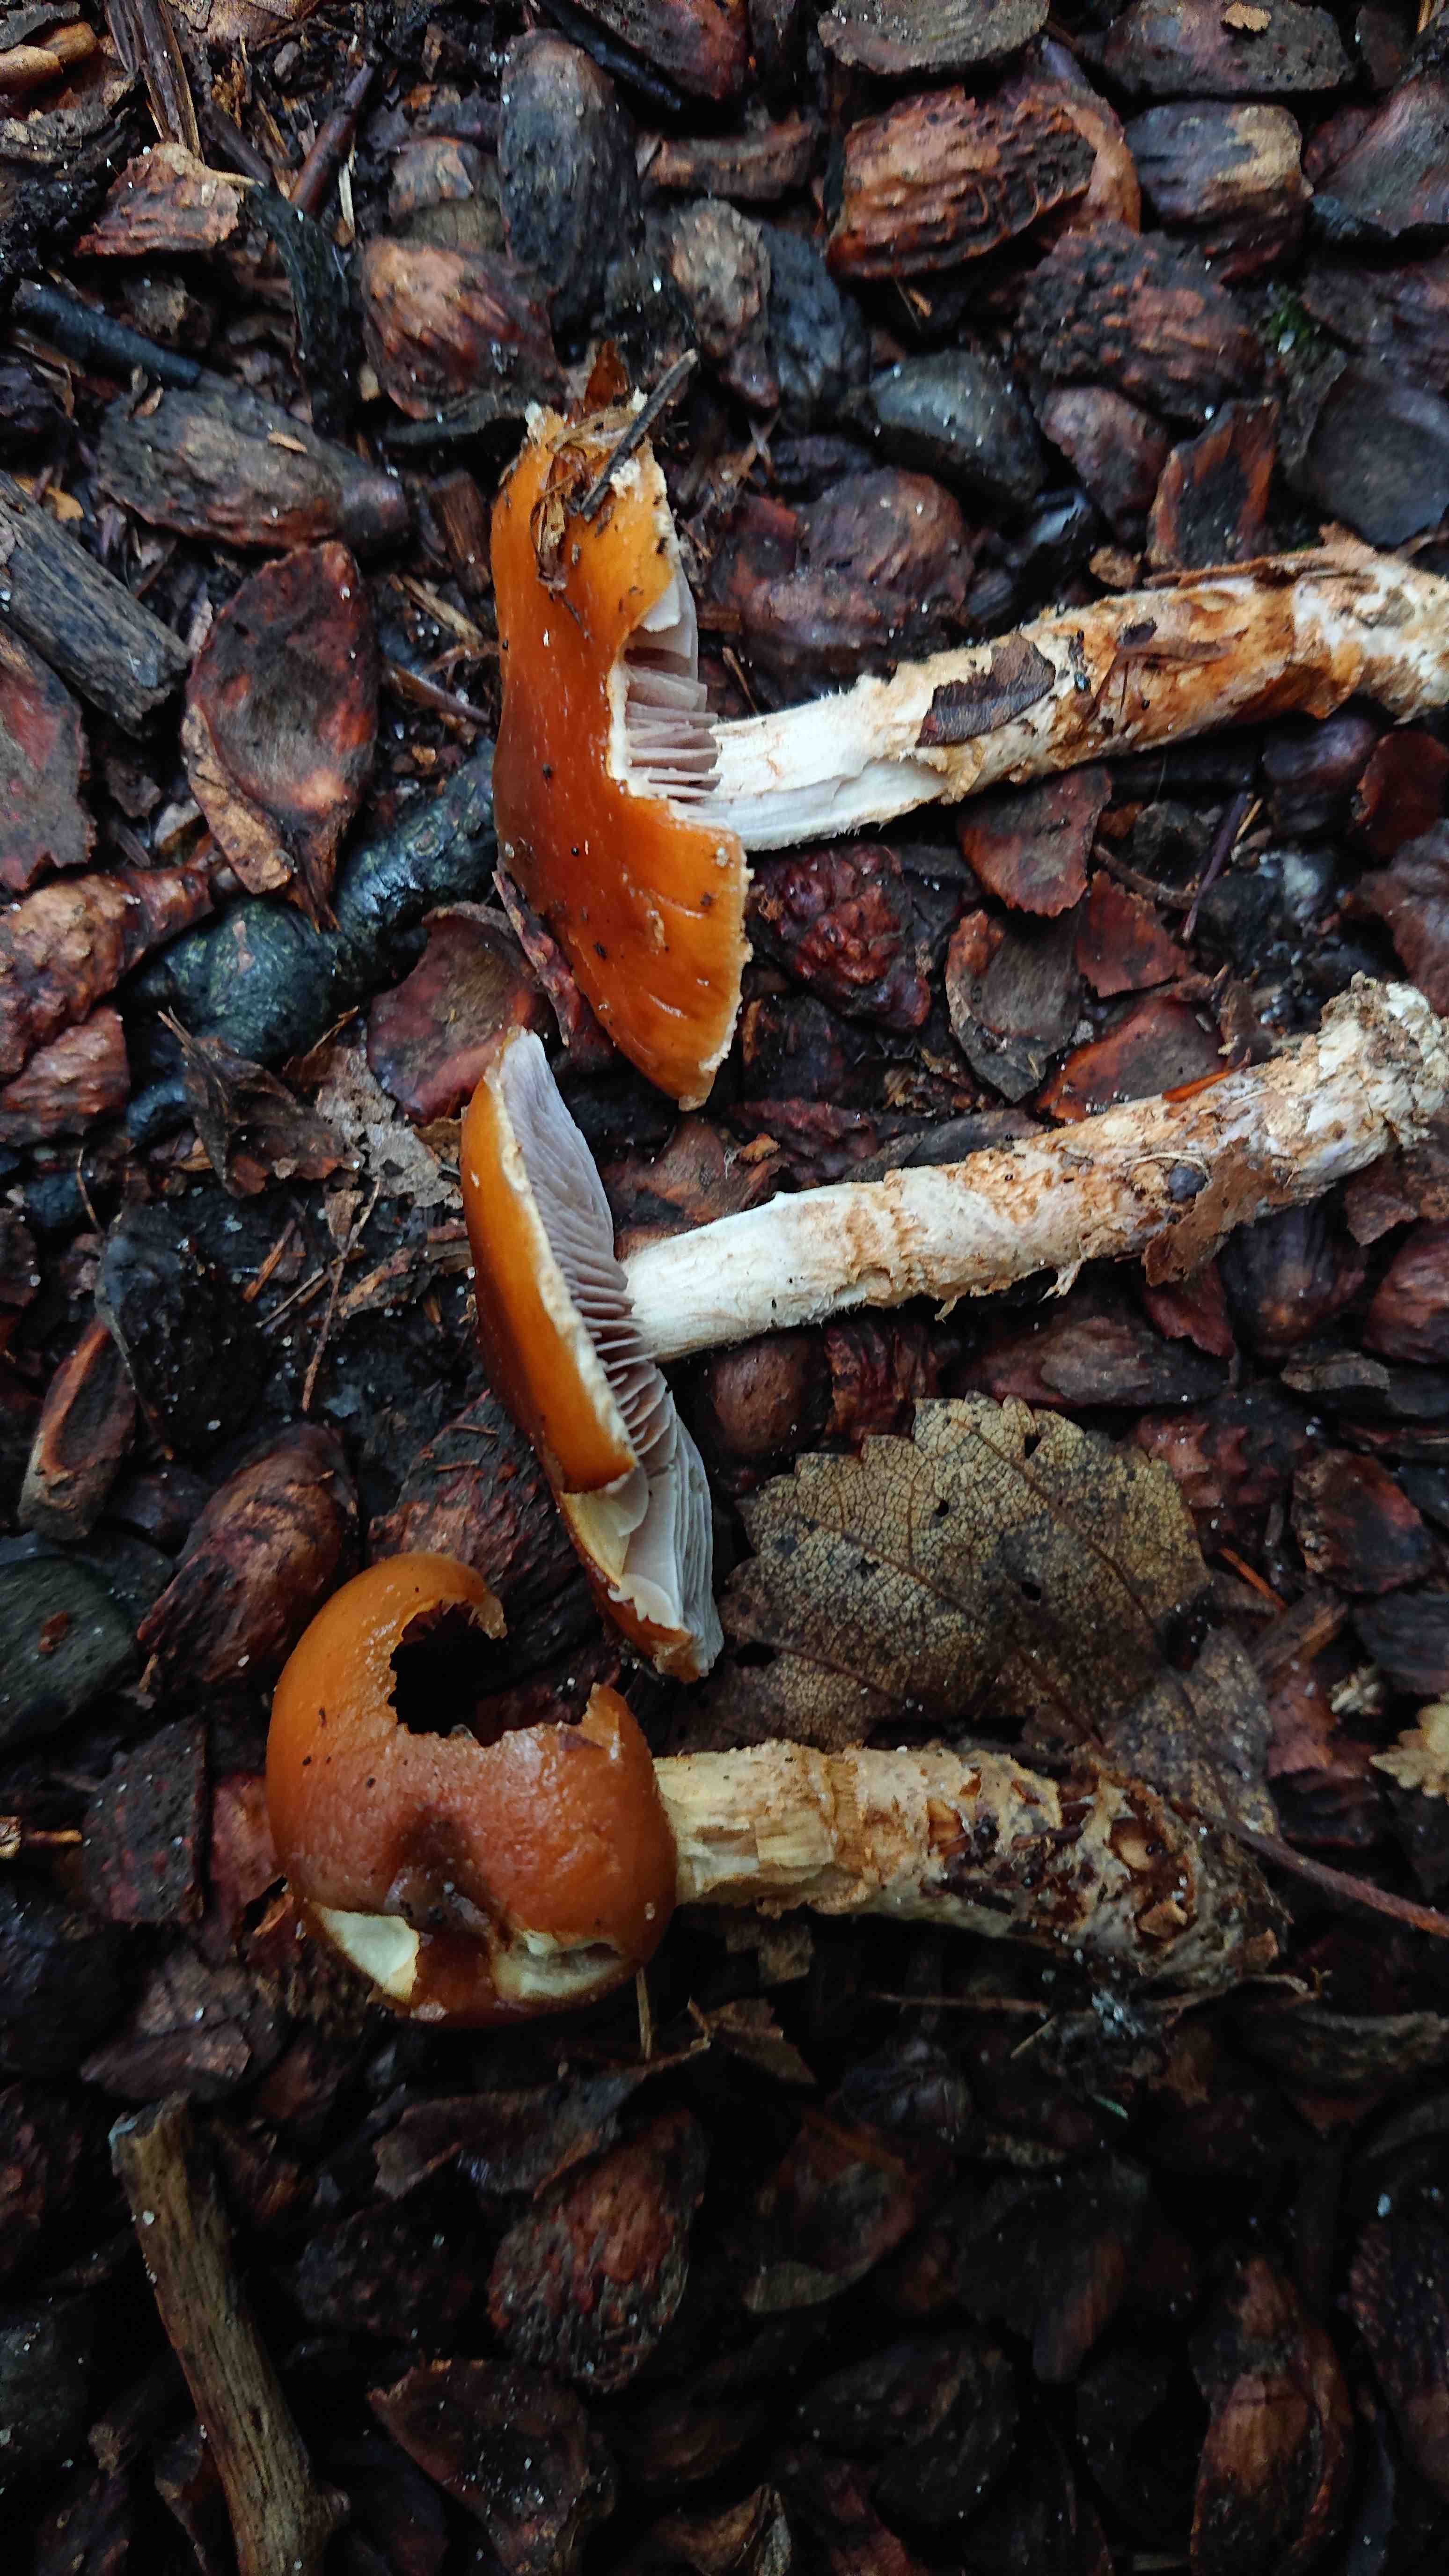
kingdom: Fungi
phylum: Basidiomycota
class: Agaricomycetes
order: Agaricales
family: Cortinariaceae
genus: Cortinarius
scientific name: Cortinarius trivialis
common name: brunslimet slørhat
